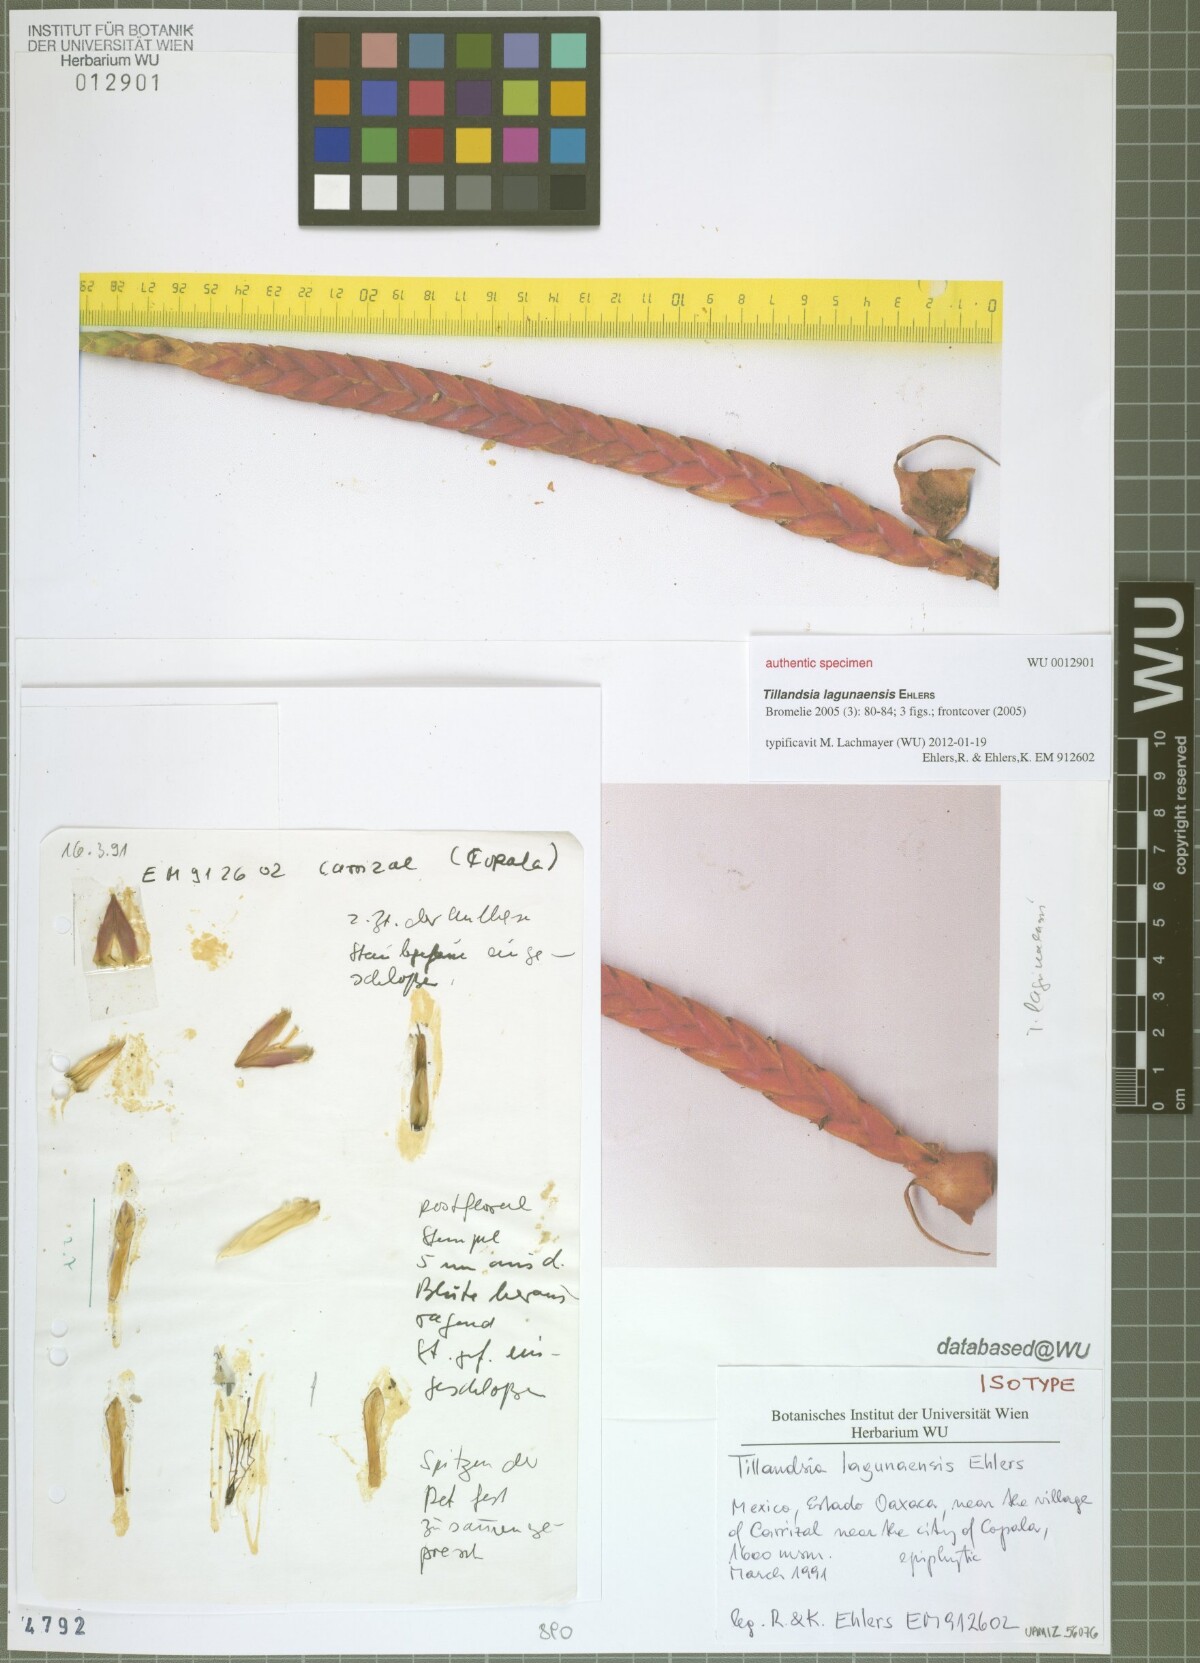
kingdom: Plantae
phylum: Tracheophyta
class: Liliopsida
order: Poales
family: Bromeliaceae
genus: Tillandsia
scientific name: Tillandsia lagunaensis
